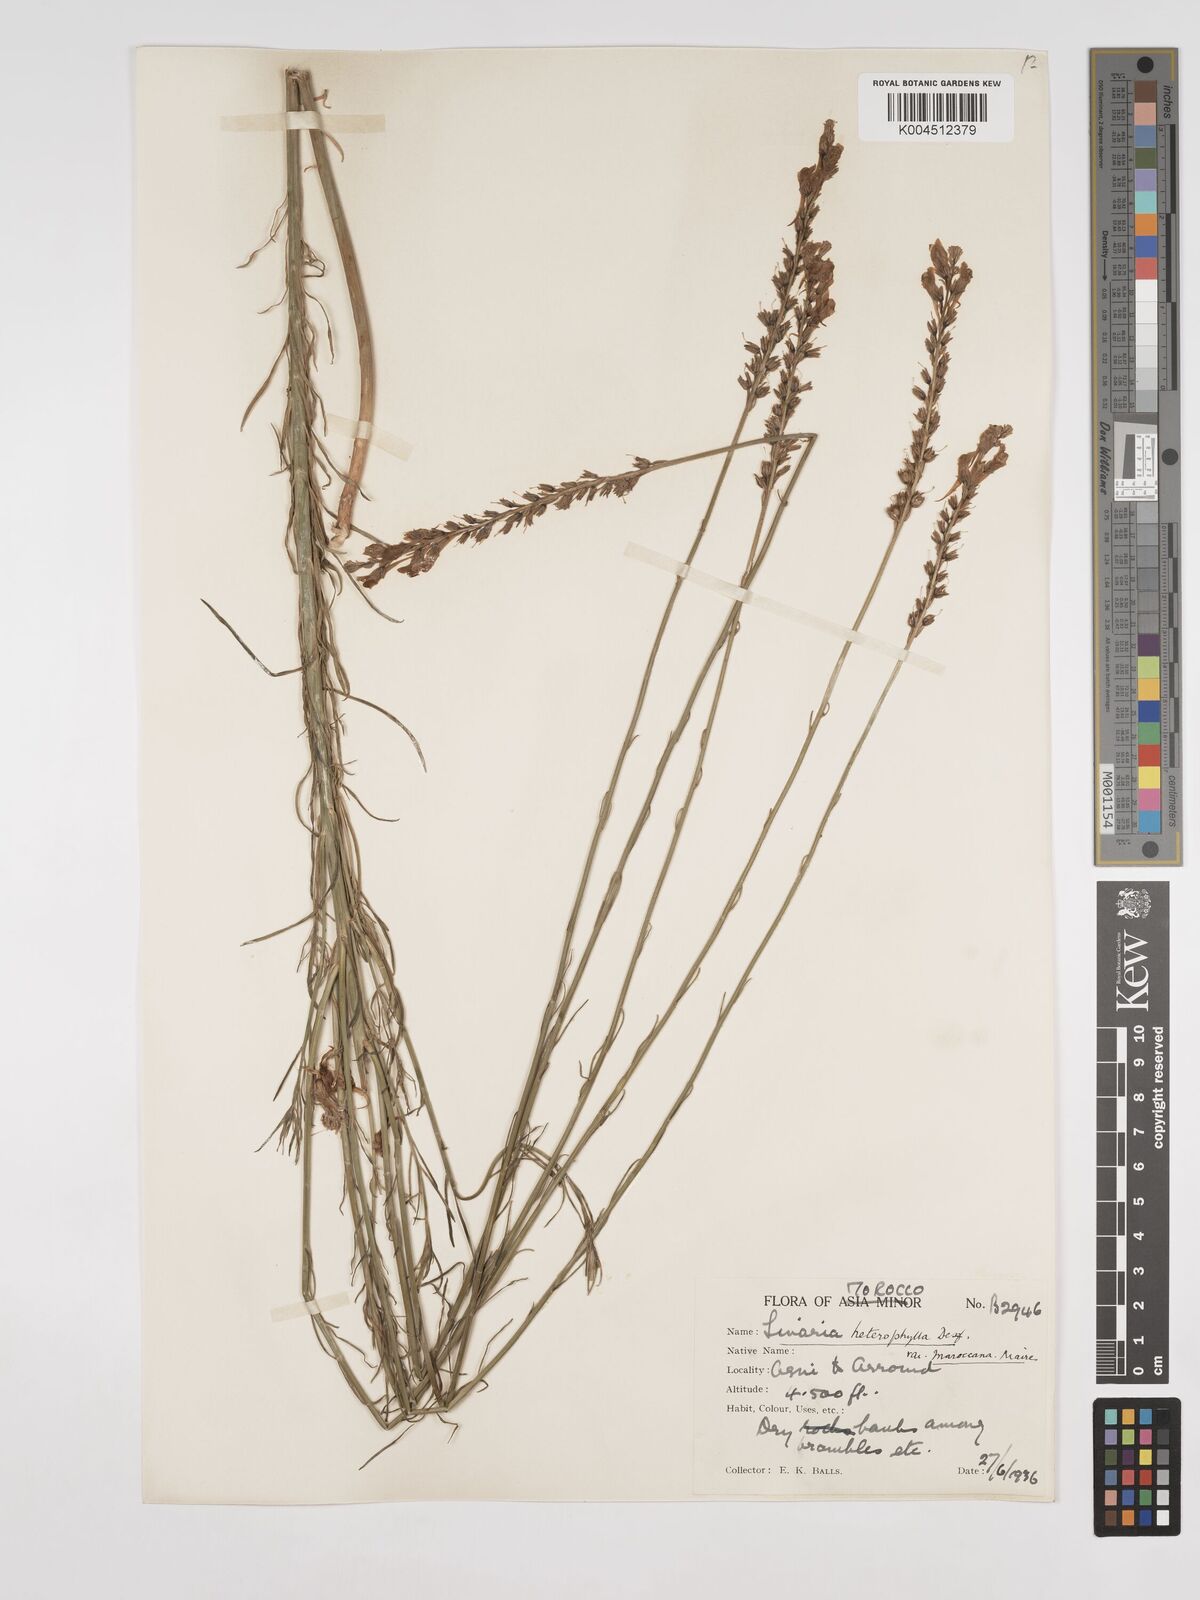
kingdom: Plantae
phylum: Tracheophyta
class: Magnoliopsida
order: Lamiales
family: Plantaginaceae
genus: Linaria
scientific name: Linaria
